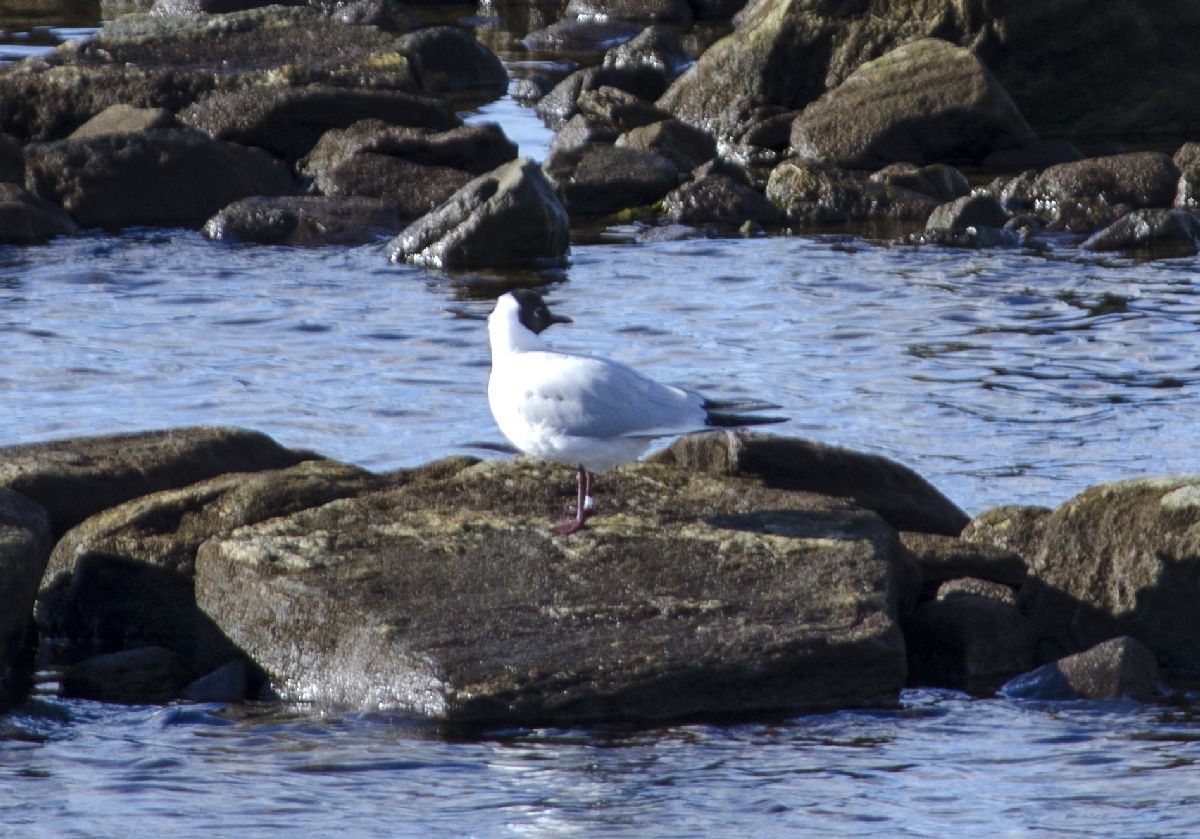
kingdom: Animalia
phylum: Chordata
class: Aves
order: Charadriiformes
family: Laridae
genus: Chroicocephalus
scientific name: Chroicocephalus ridibundus
